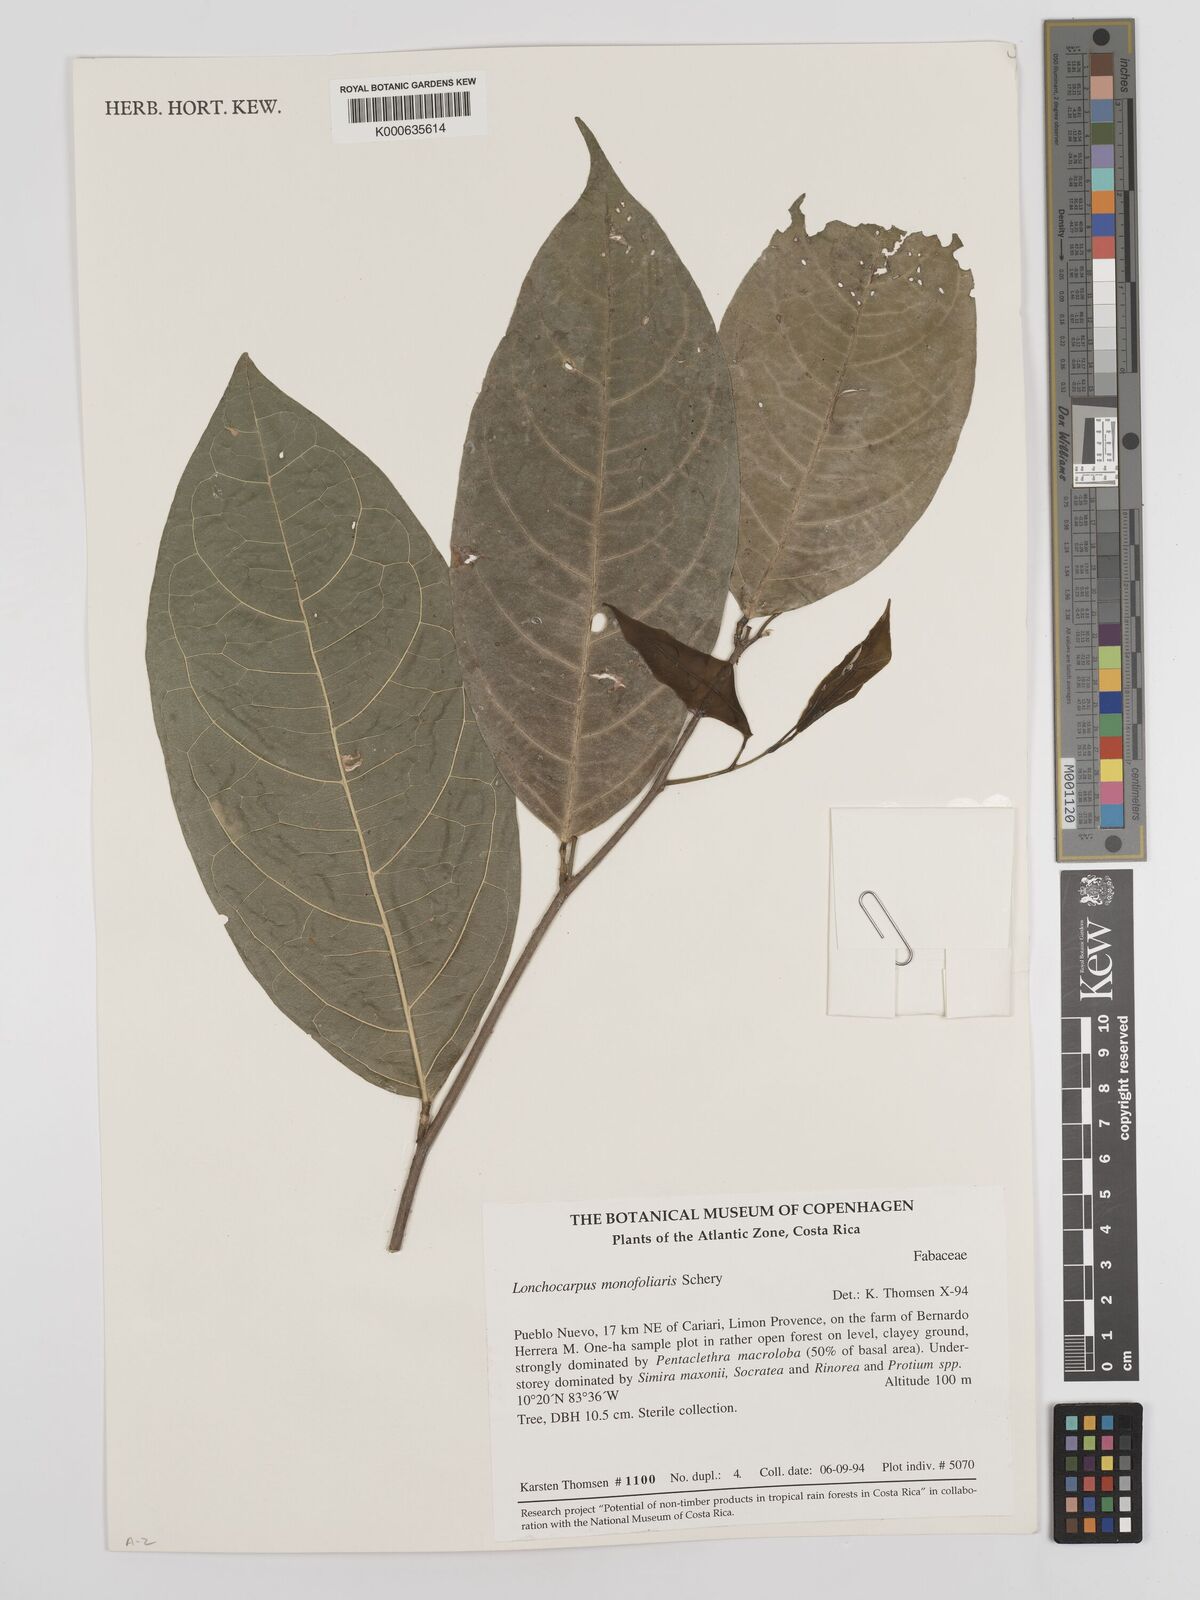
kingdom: Plantae
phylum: Tracheophyta
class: Magnoliopsida
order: Fabales
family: Fabaceae
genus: Lonchocarpus
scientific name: Lonchocarpus monofoliaris
